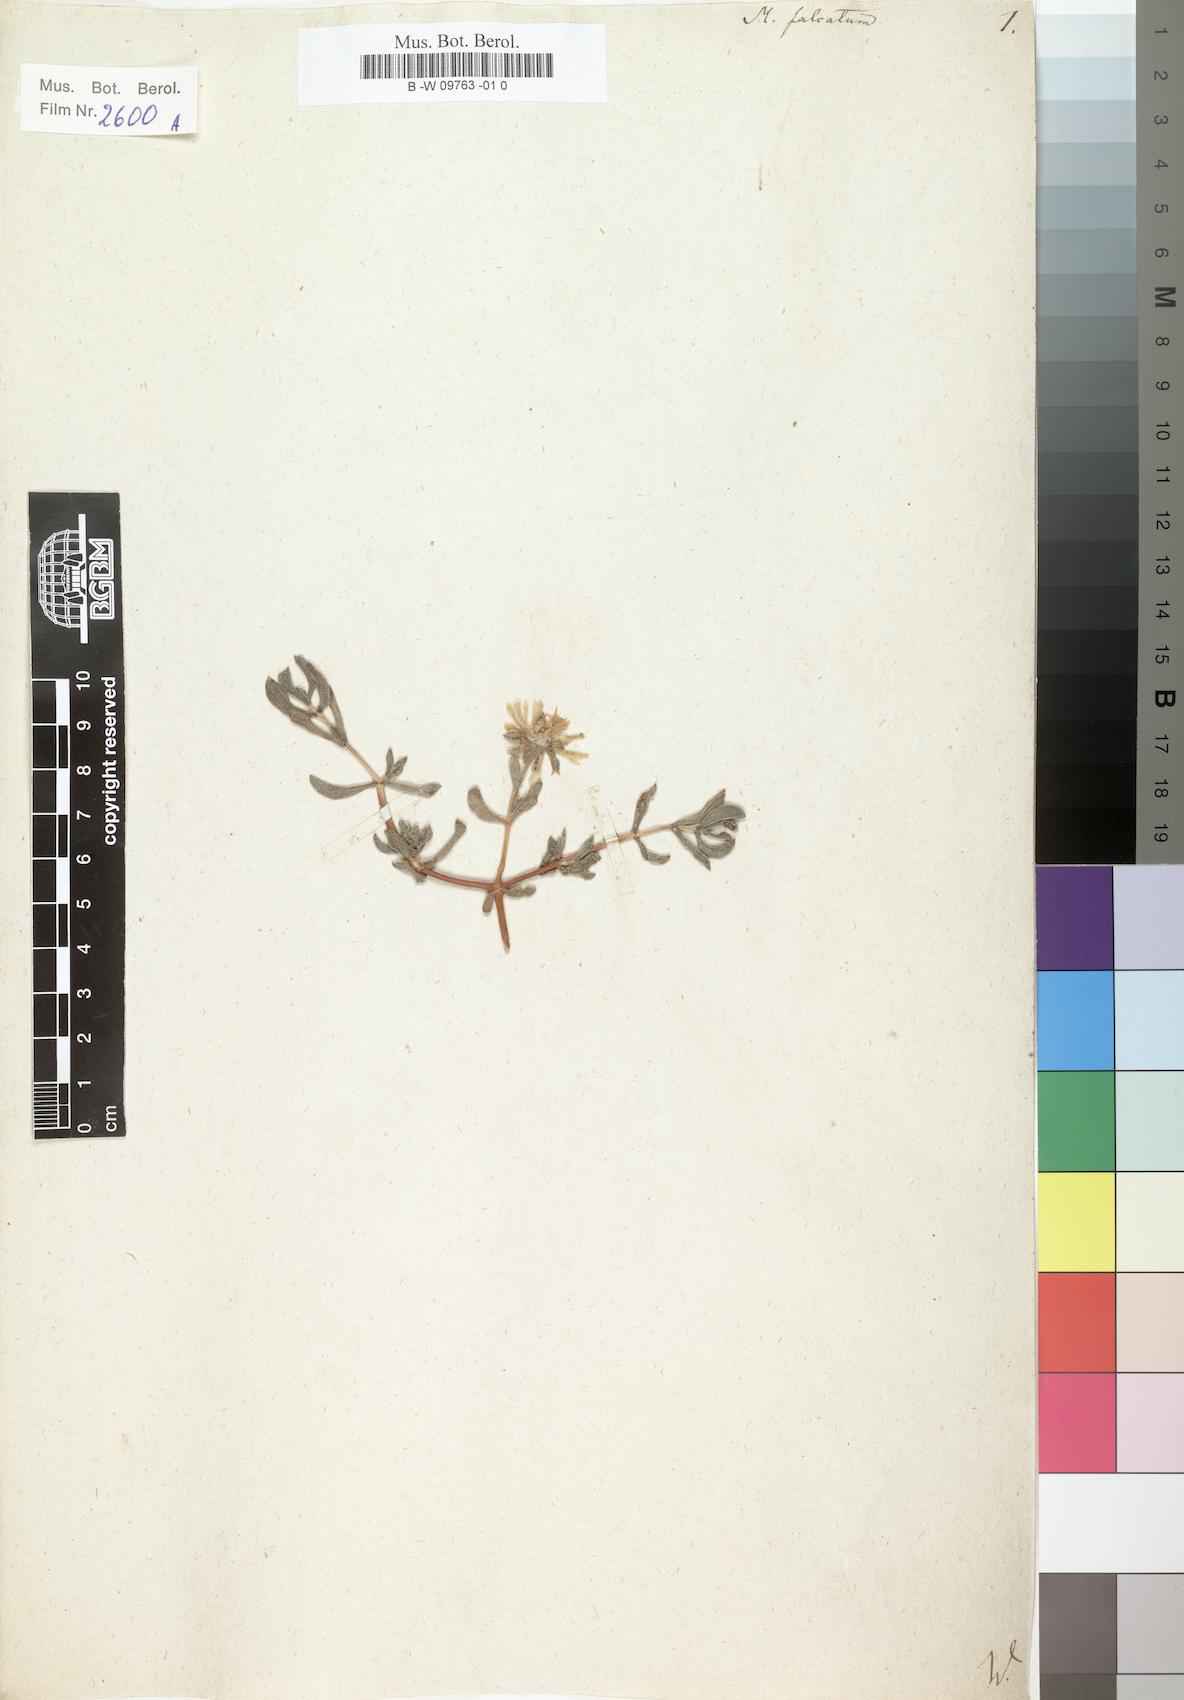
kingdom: Plantae
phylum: Tracheophyta
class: Magnoliopsida
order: Caryophyllales
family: Aizoaceae
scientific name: Aizoaceae
